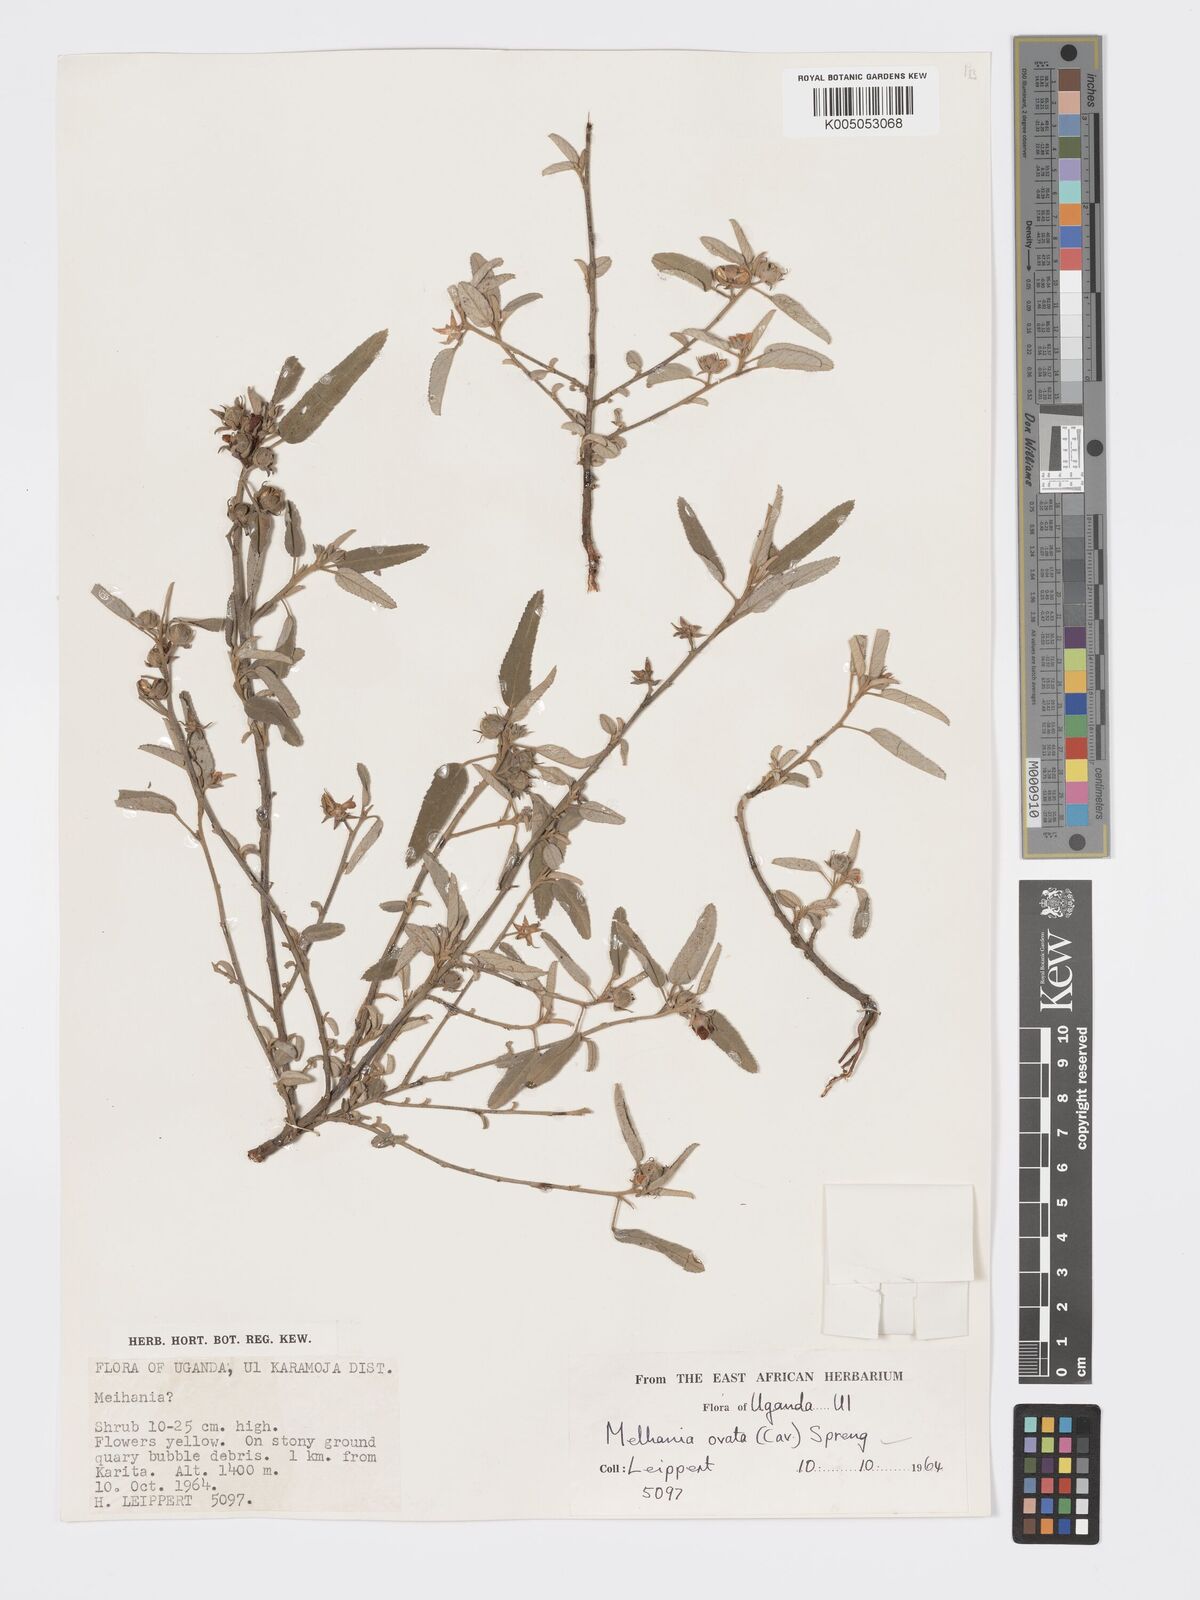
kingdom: Plantae
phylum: Tracheophyta
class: Magnoliopsida
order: Malvales
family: Malvaceae
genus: Melhania
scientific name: Melhania parviflora
